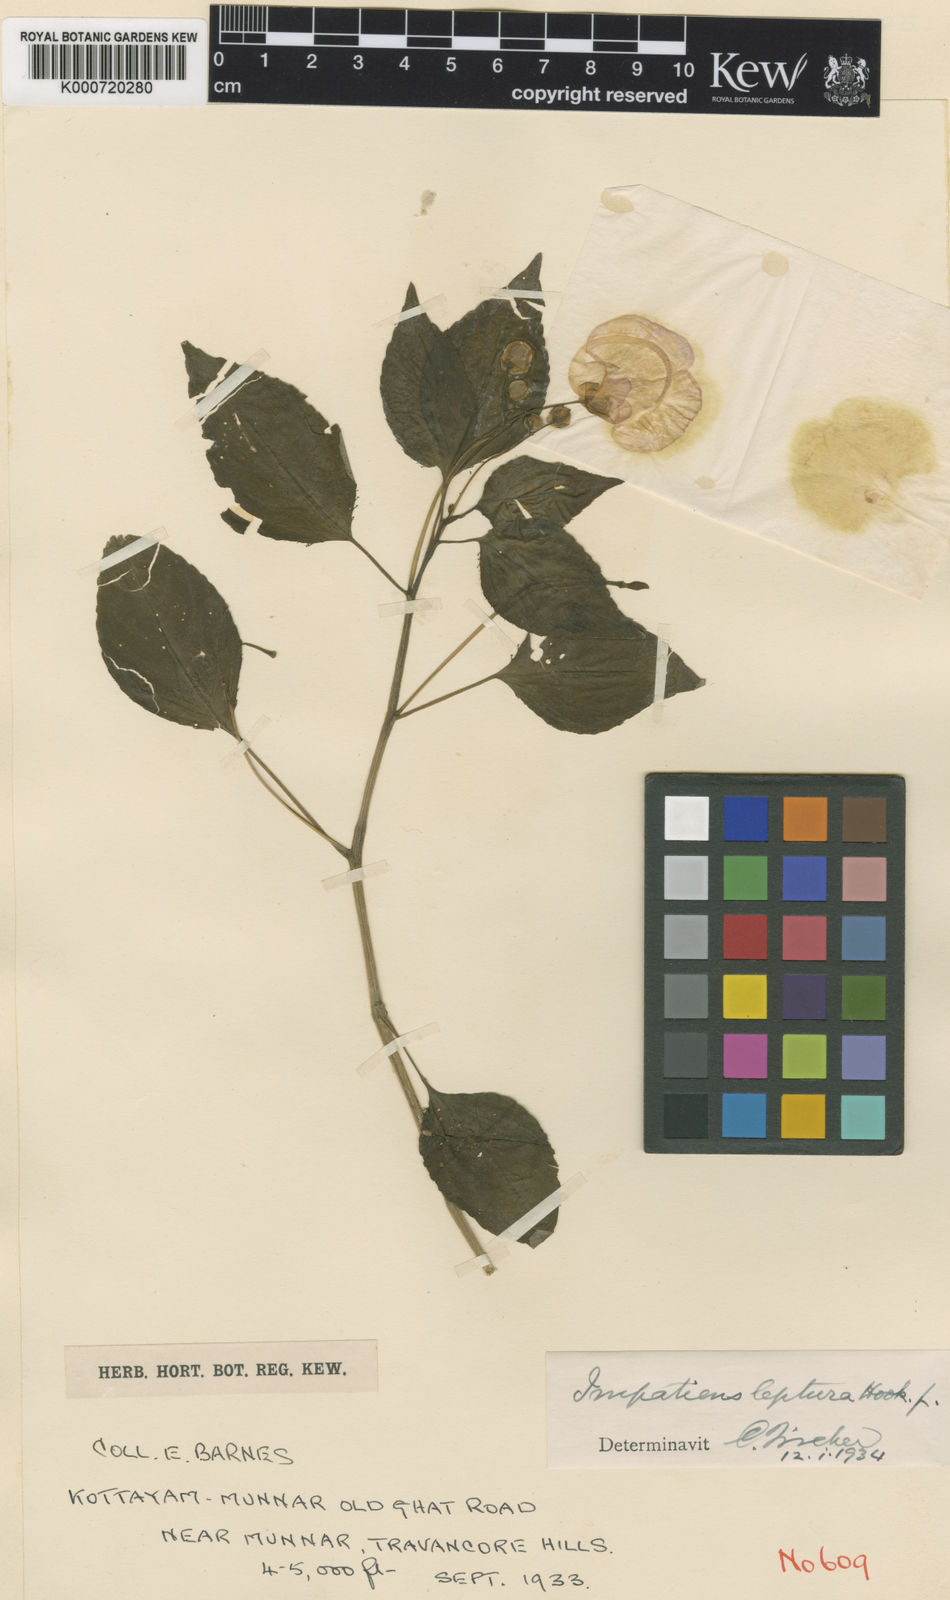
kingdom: Plantae
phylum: Tracheophyta
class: Magnoliopsida
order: Ericales
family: Balsaminaceae
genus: Impatiens
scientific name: Impatiens leptura
